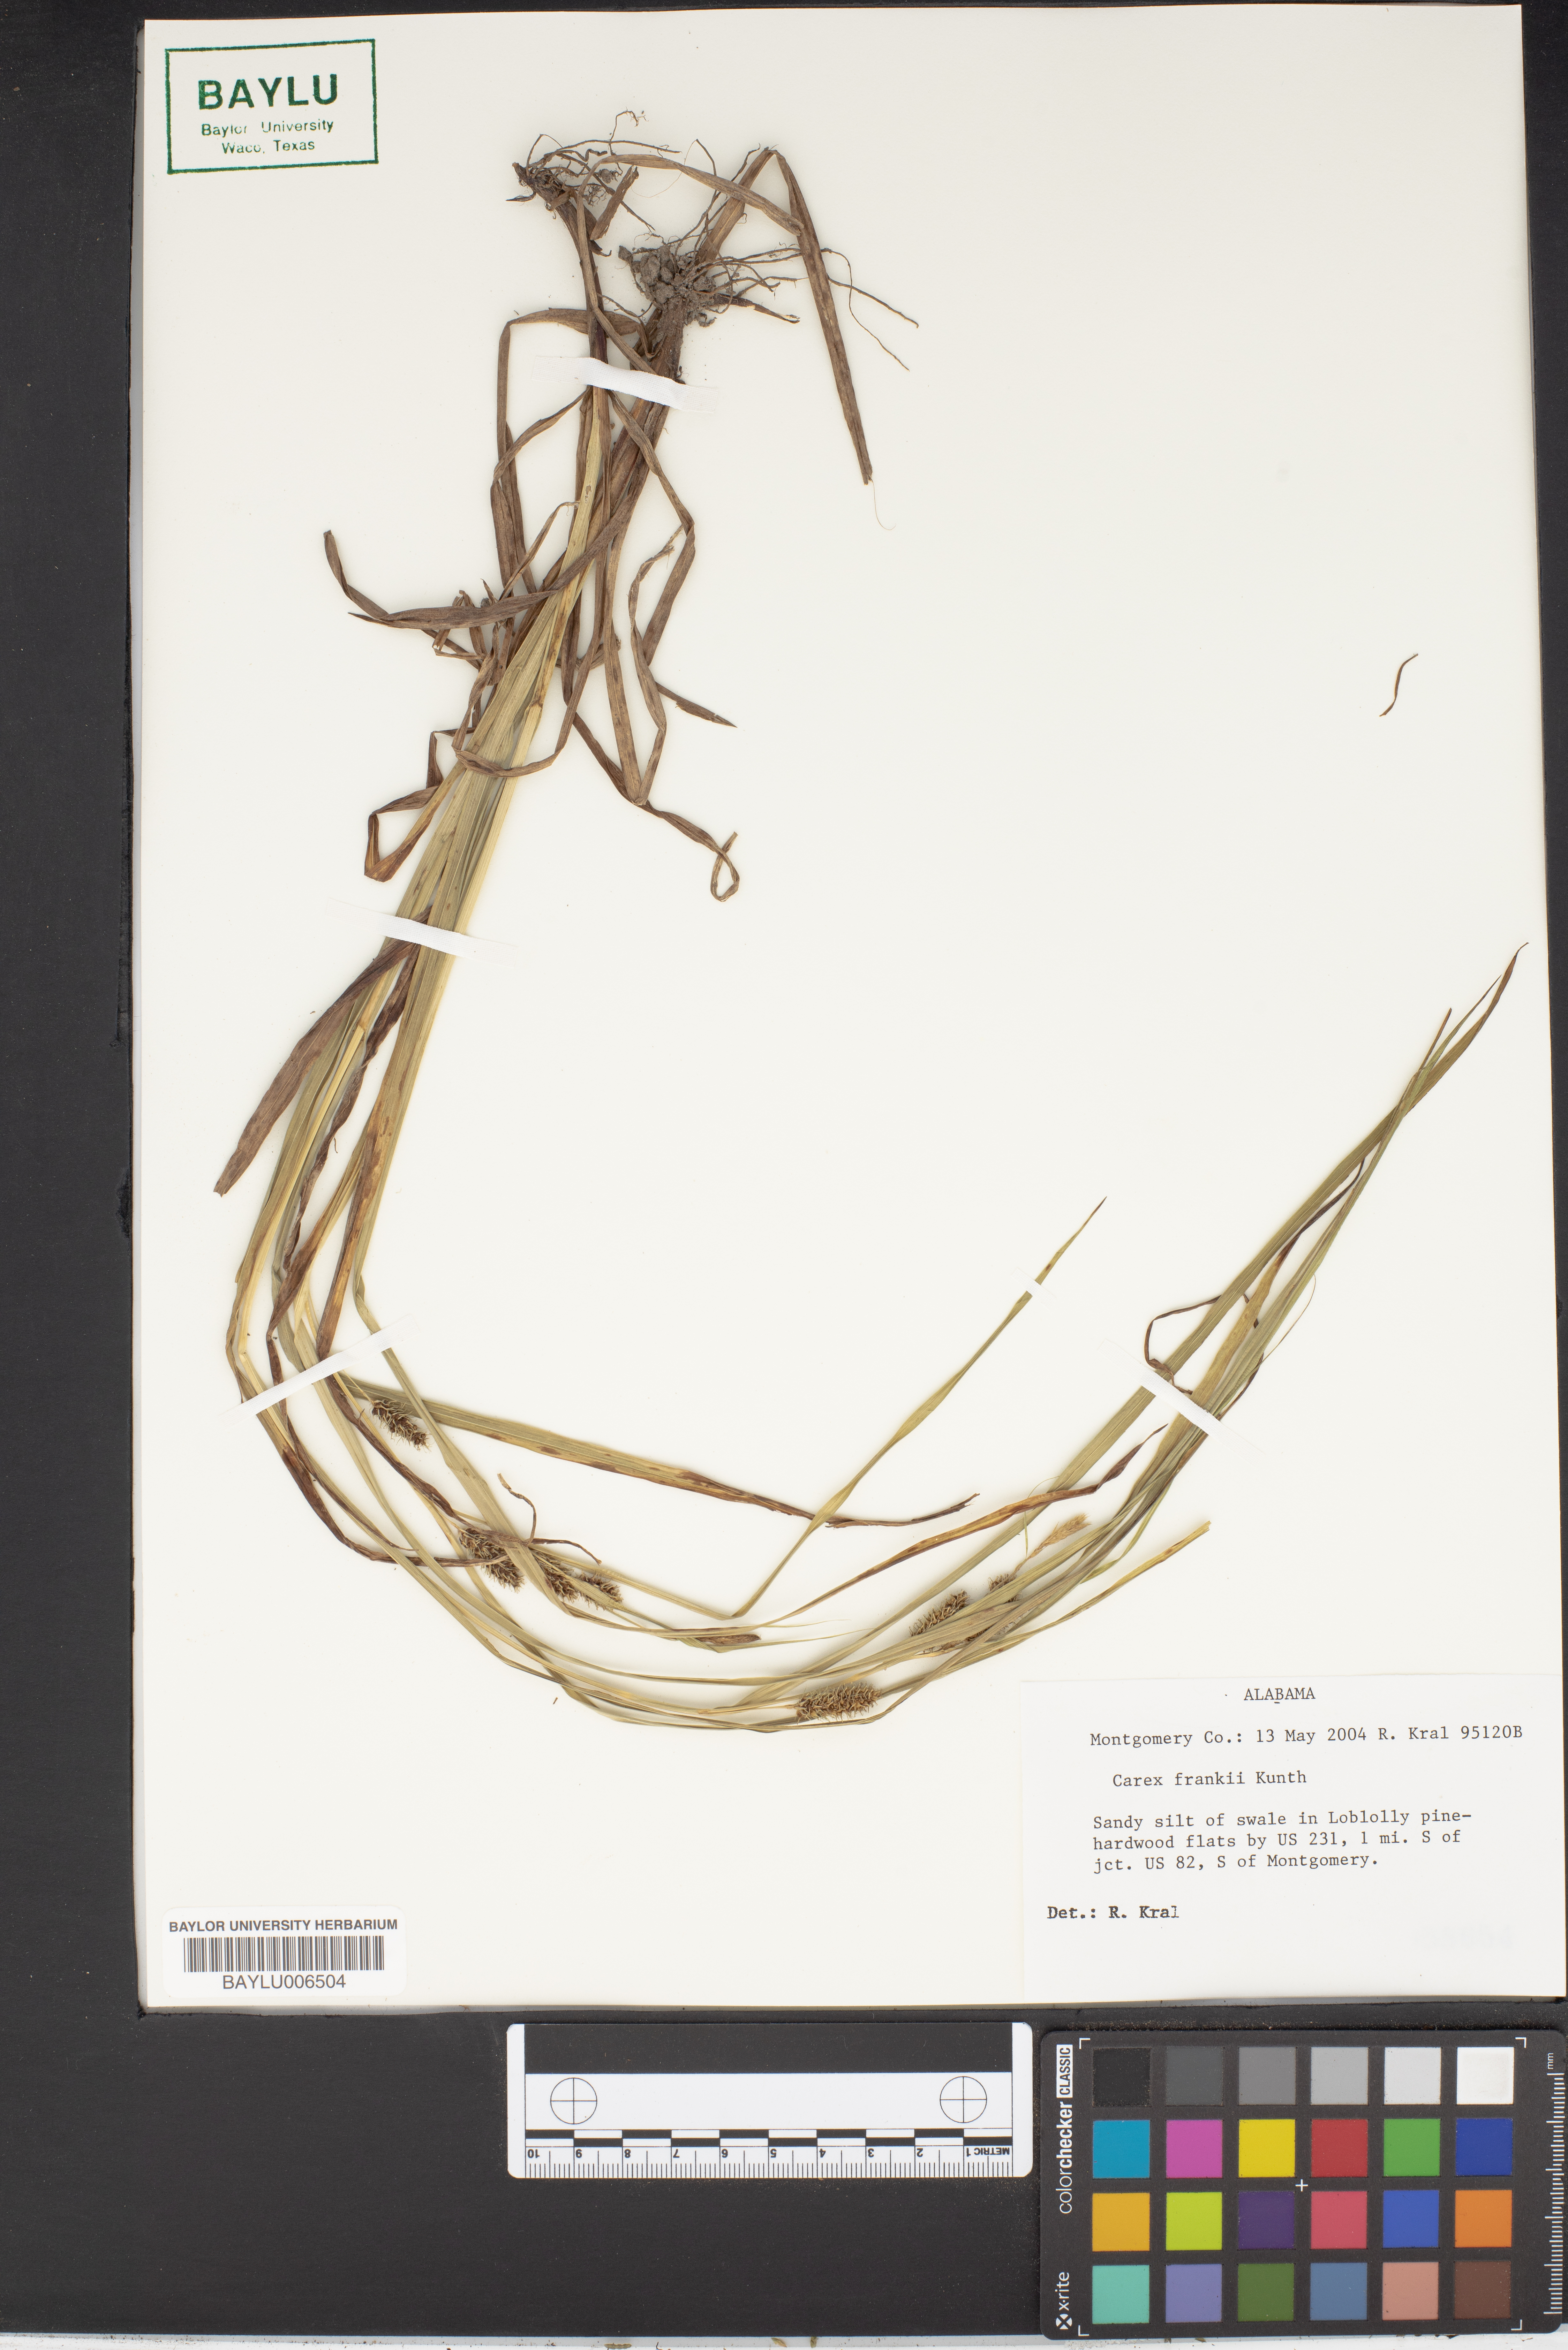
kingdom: Plantae
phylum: Tracheophyta
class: Liliopsida
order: Poales
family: Cyperaceae
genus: Carex
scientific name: Carex frankii
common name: Frank's sedge
